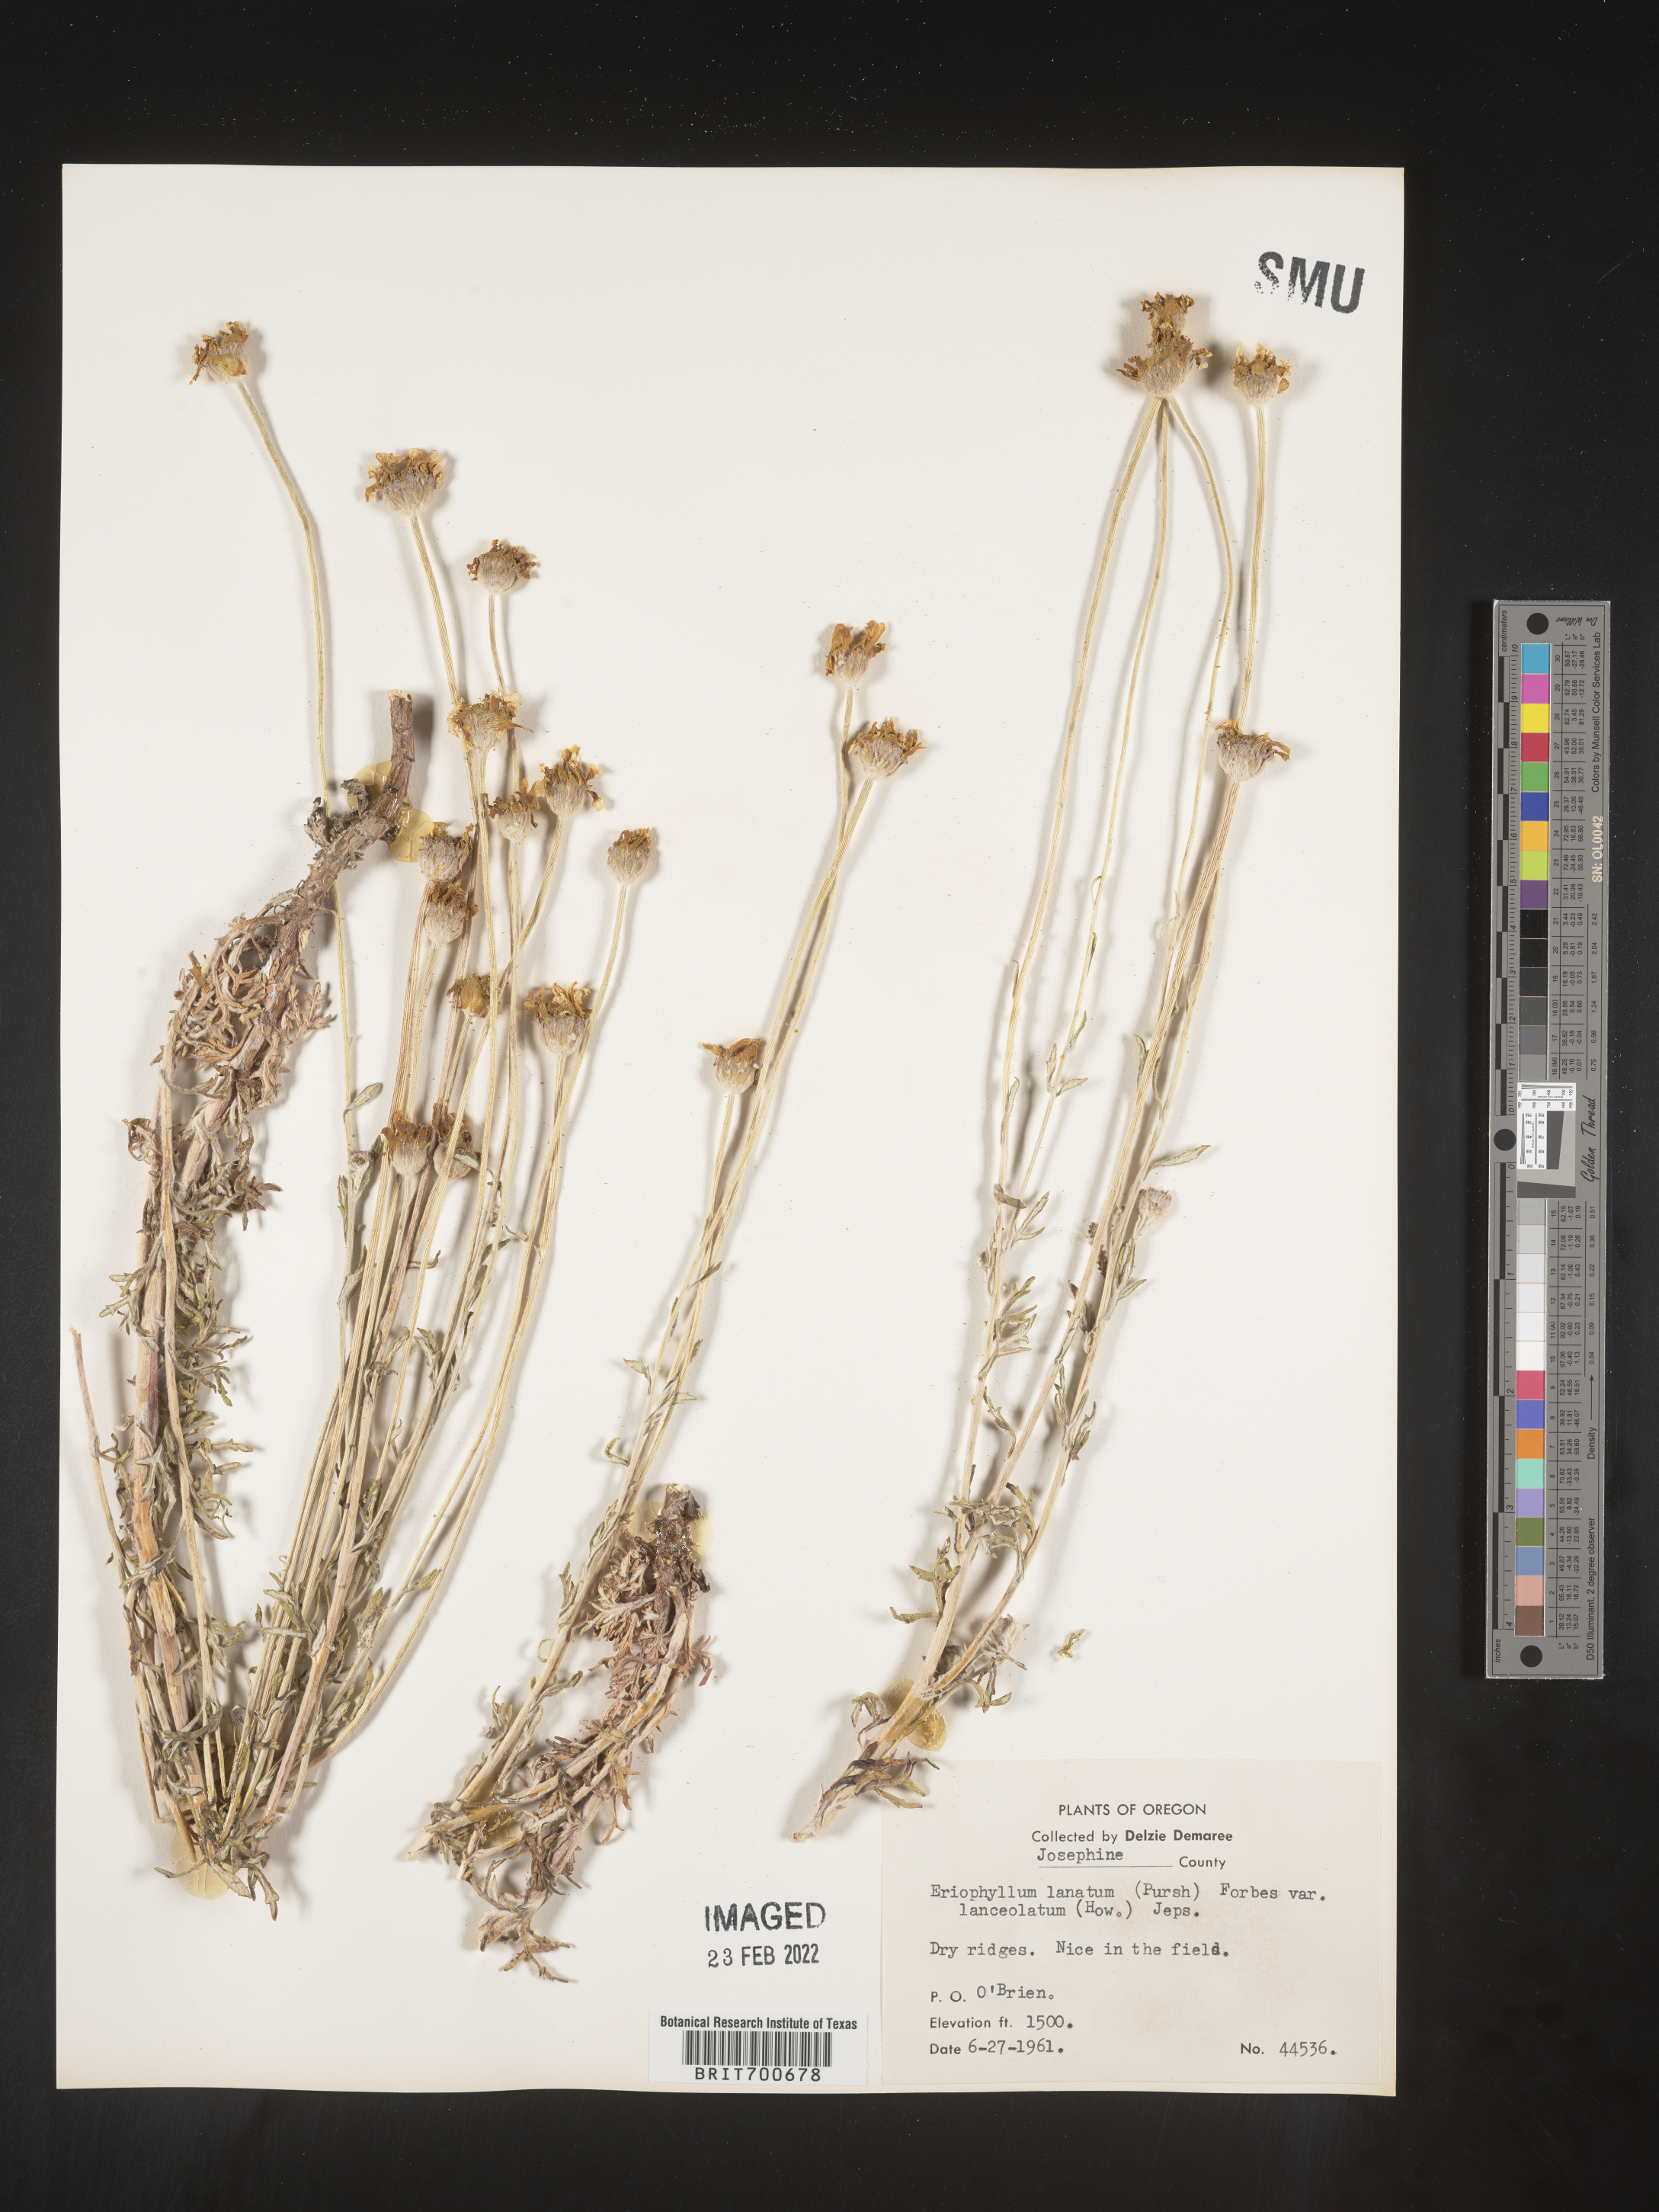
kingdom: Plantae
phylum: Tracheophyta
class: Magnoliopsida
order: Asterales
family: Asteraceae
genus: Eriophyllum
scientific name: Eriophyllum lanatum
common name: Common woolly-sunflower
